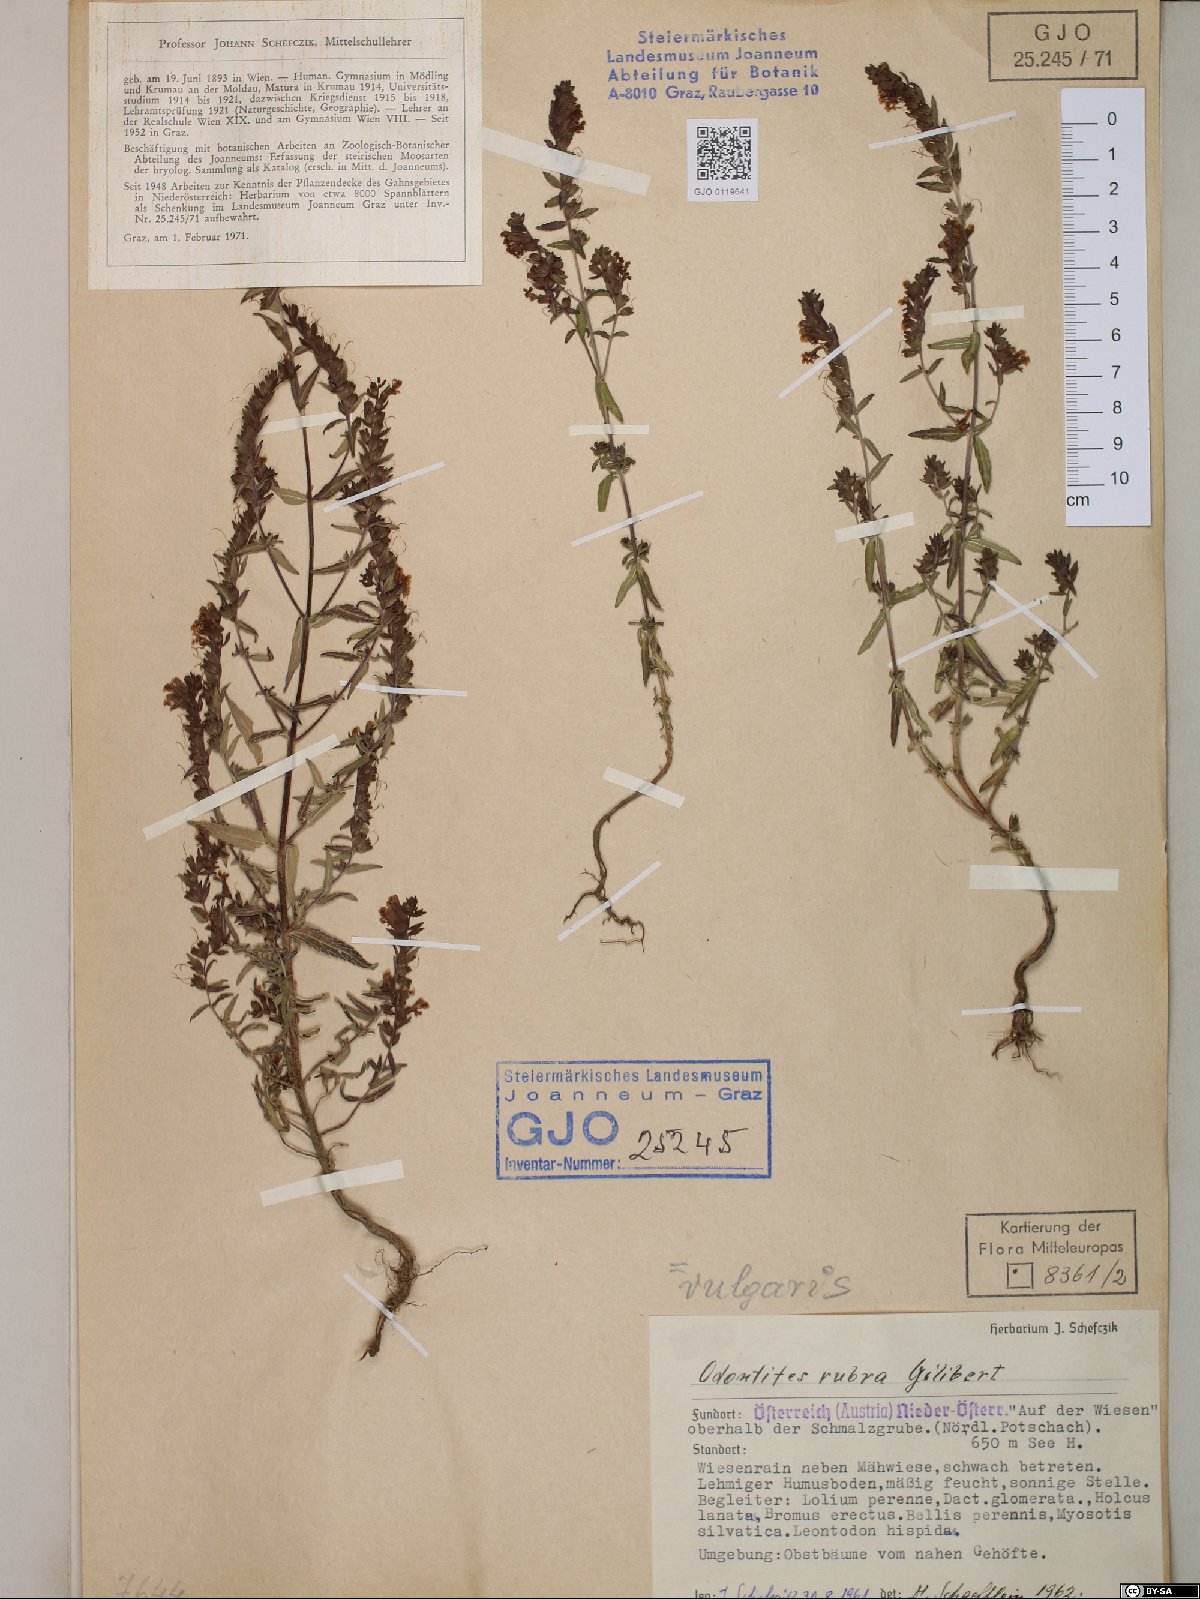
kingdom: Plantae
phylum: Tracheophyta
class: Magnoliopsida
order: Lamiales
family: Orobanchaceae
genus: Odontites
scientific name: Odontites vulgaris
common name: Broomrape
